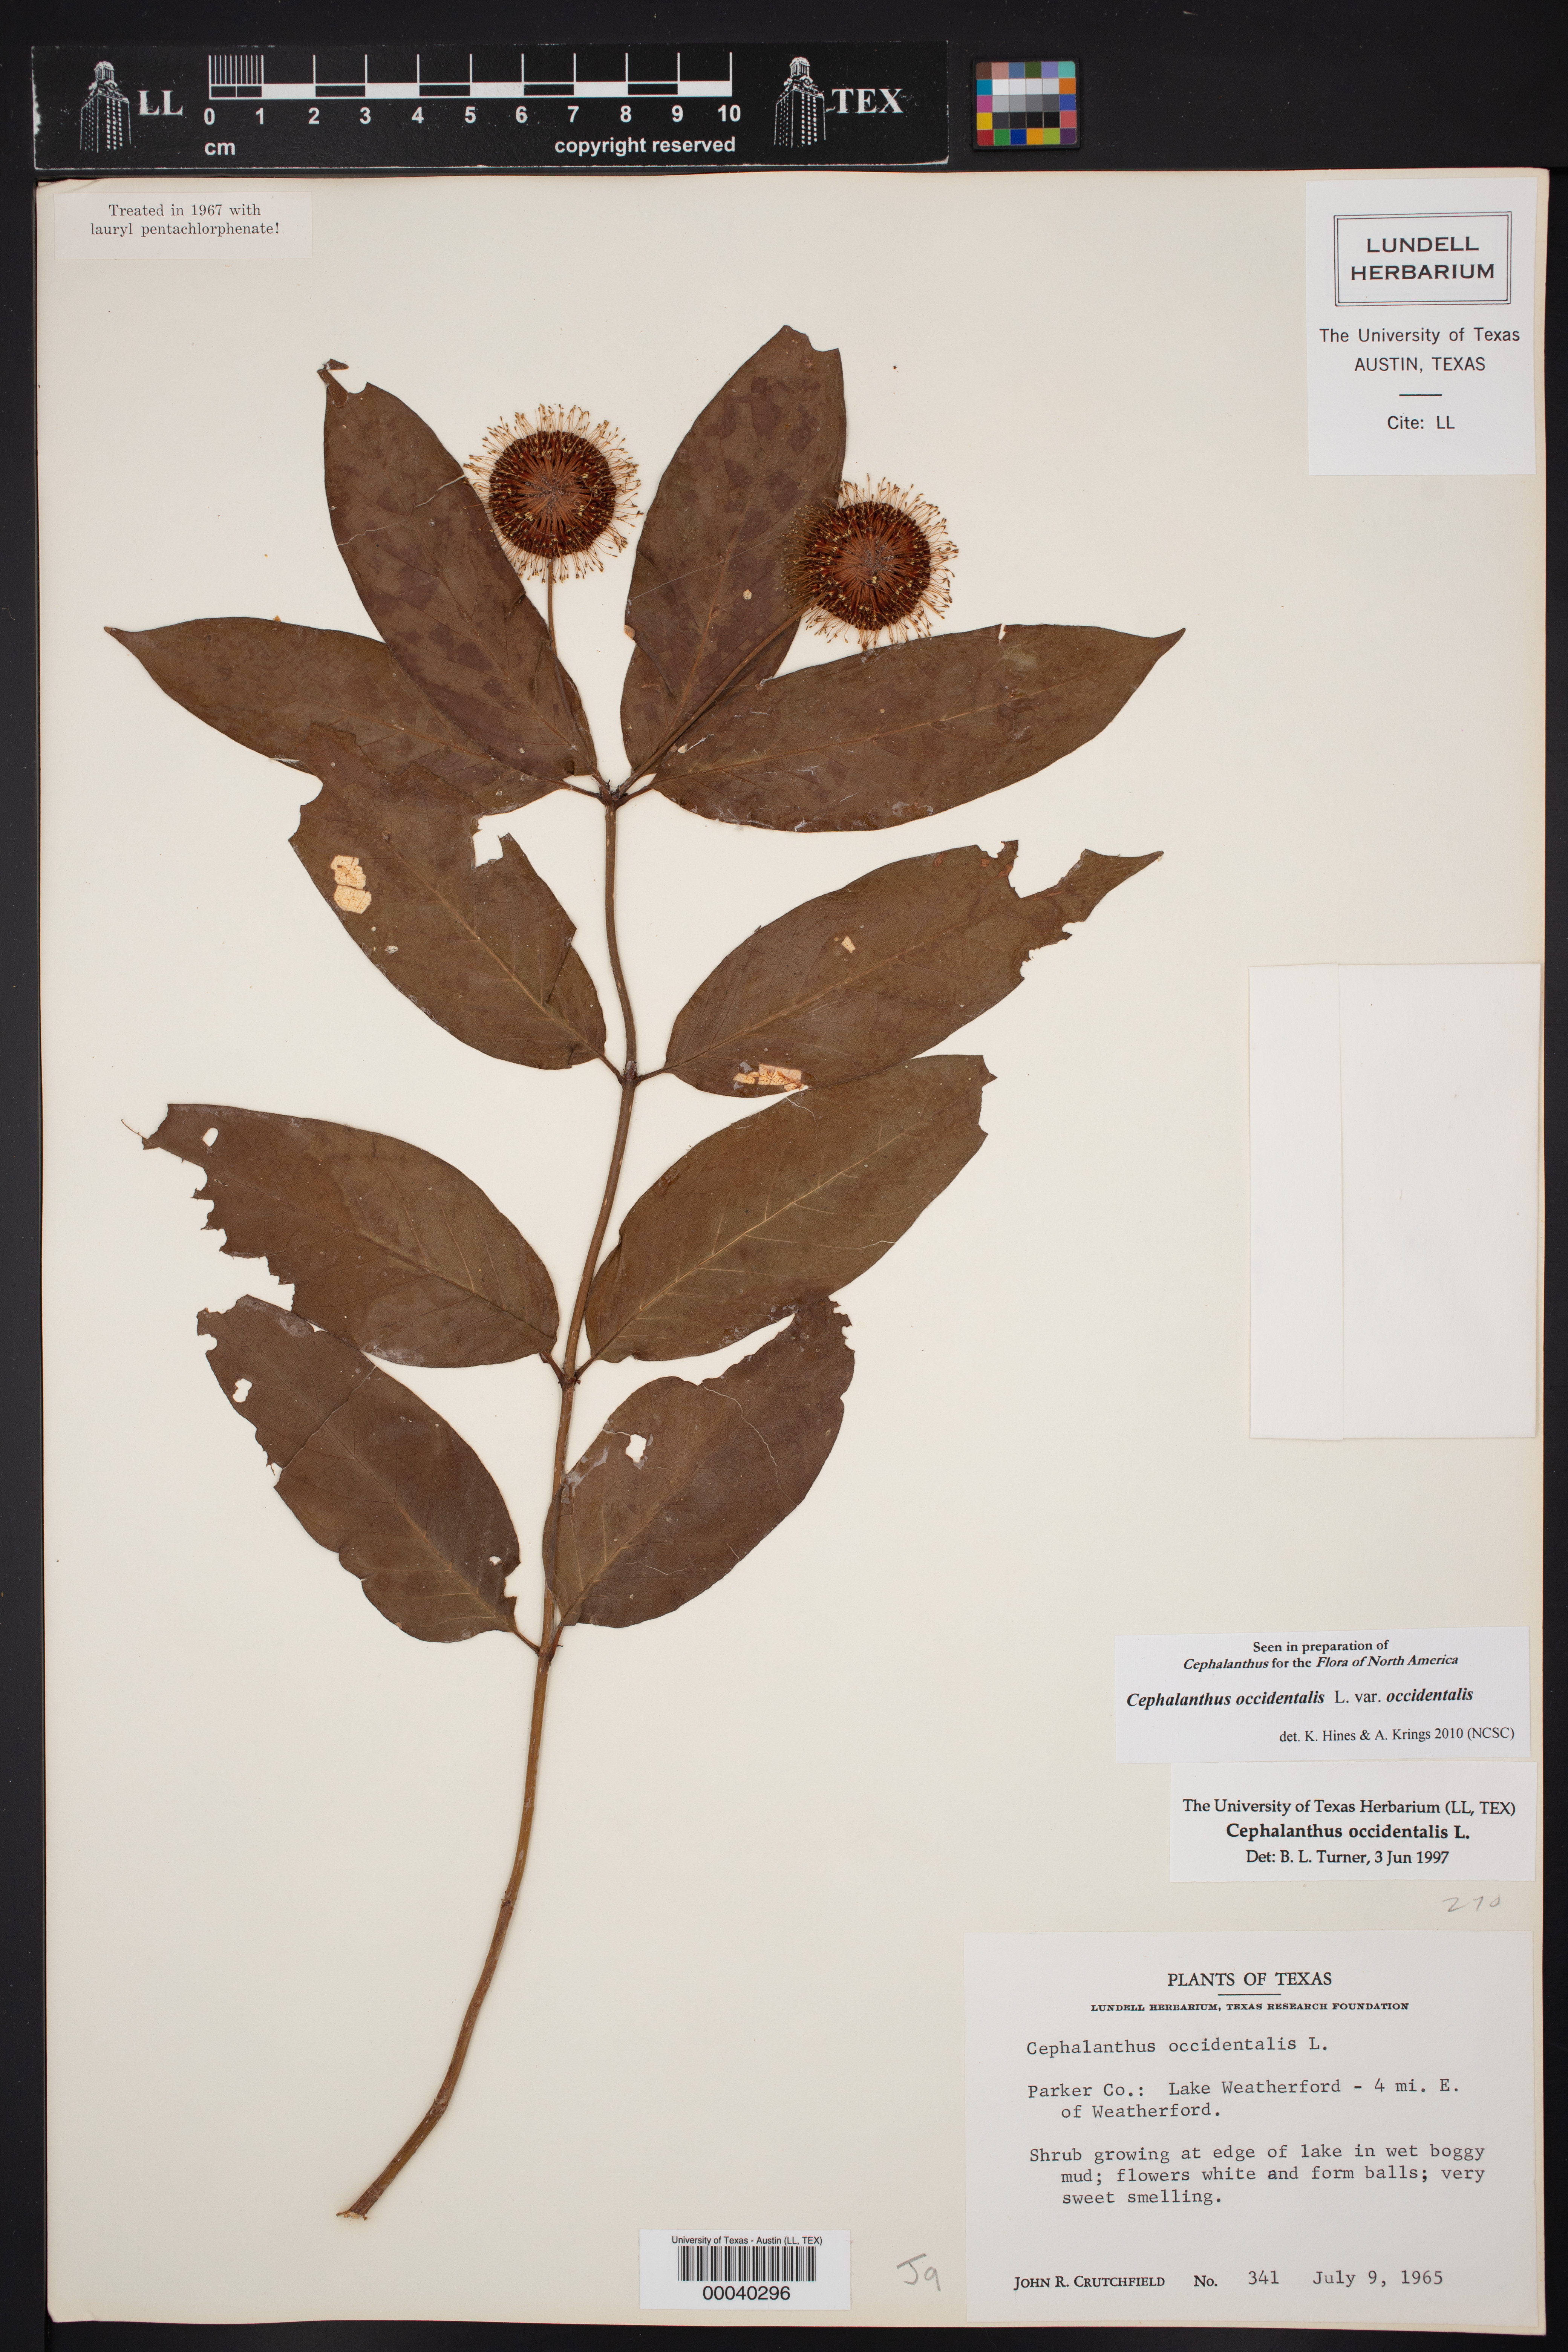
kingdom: Plantae
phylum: Tracheophyta
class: Magnoliopsida
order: Gentianales
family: Rubiaceae
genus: Cephalanthus
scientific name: Cephalanthus occidentalis
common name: Button-willow
